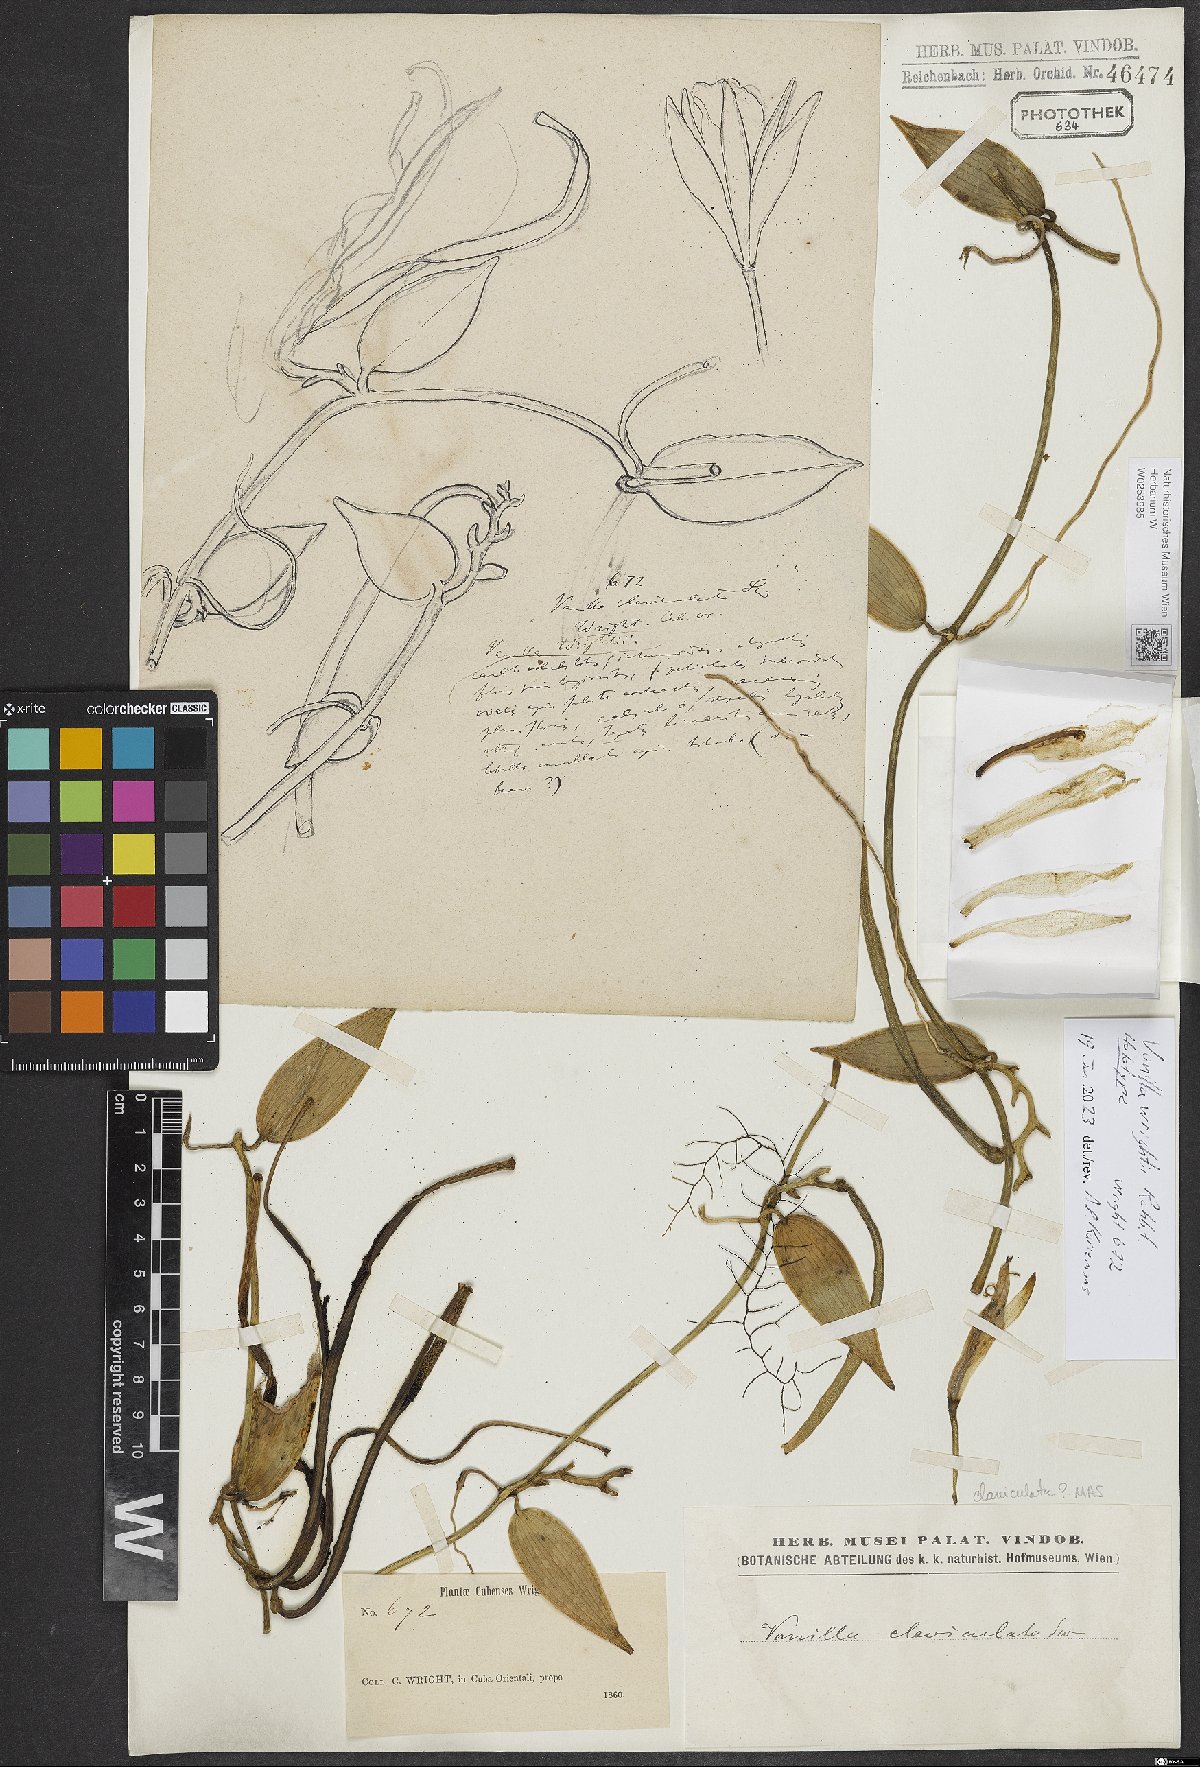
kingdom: Plantae
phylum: Tracheophyta
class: Liliopsida
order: Asparagales
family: Orchidaceae
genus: Vanilla
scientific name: Vanilla
